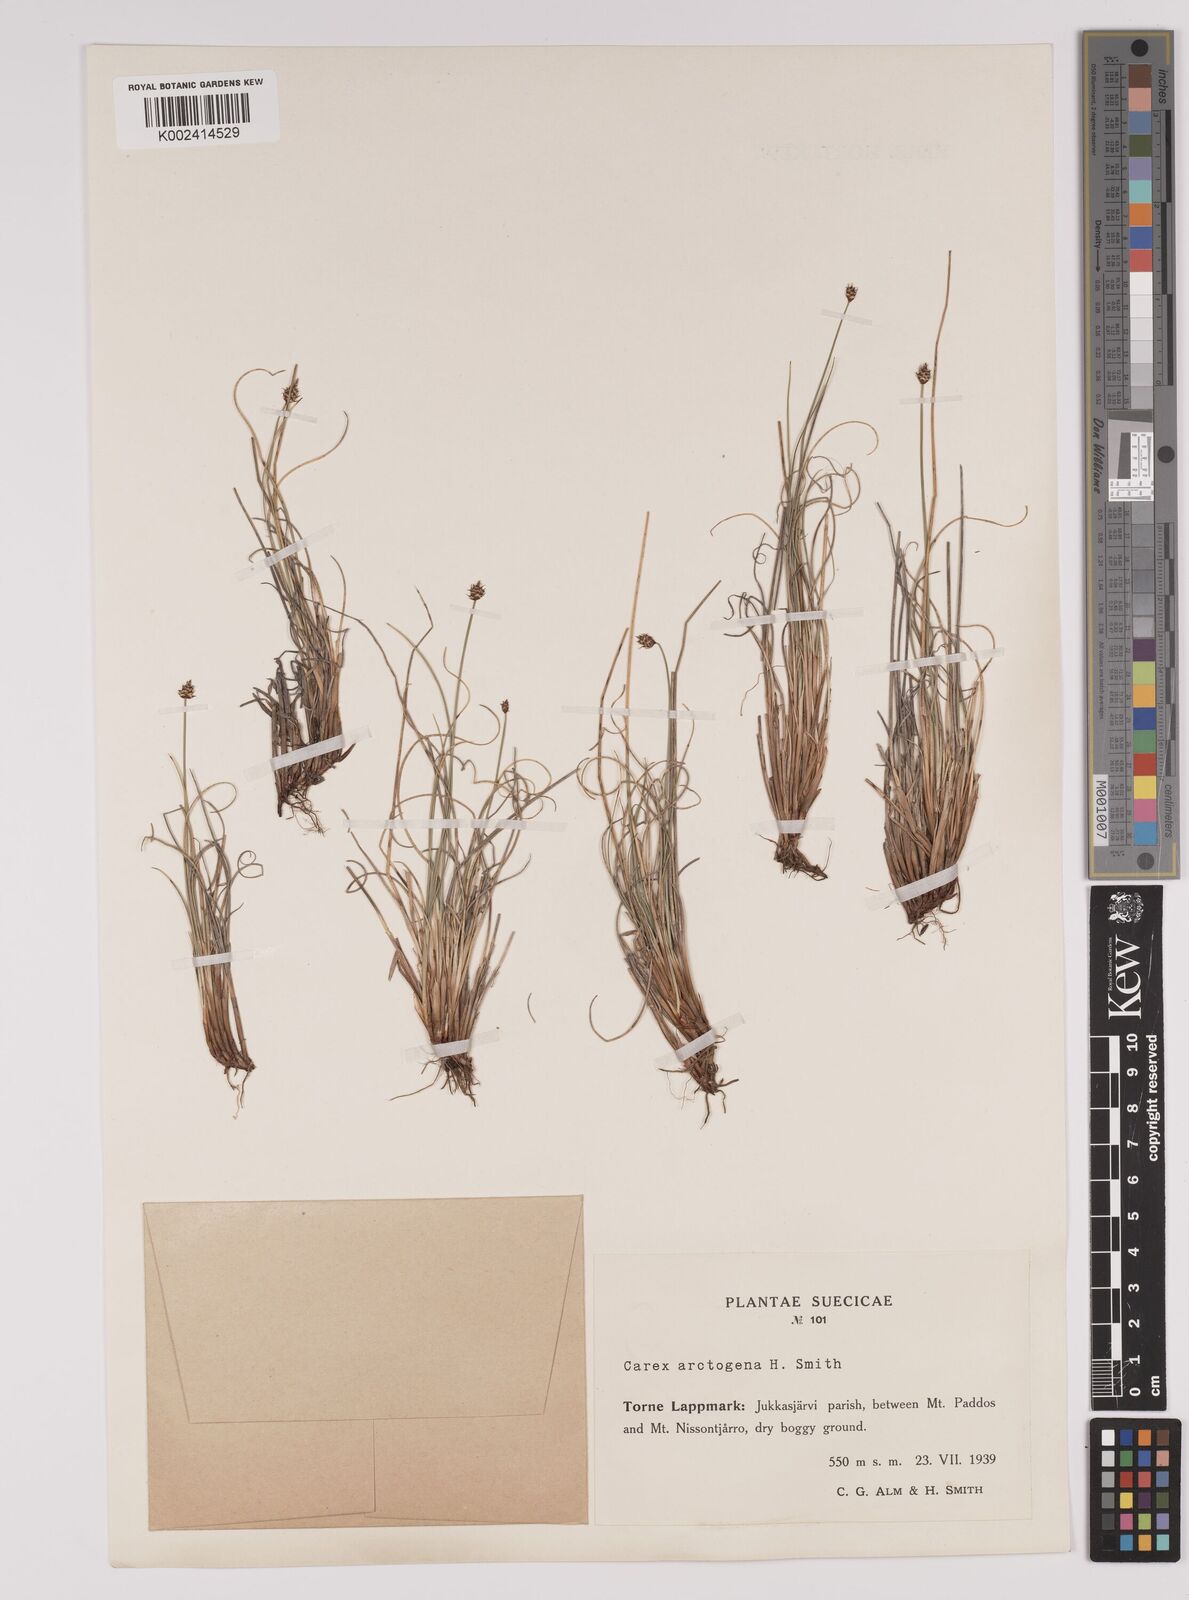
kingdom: Plantae
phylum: Tracheophyta
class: Liliopsida
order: Poales
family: Cyperaceae
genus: Carex
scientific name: Carex arctogena
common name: Black sedge
